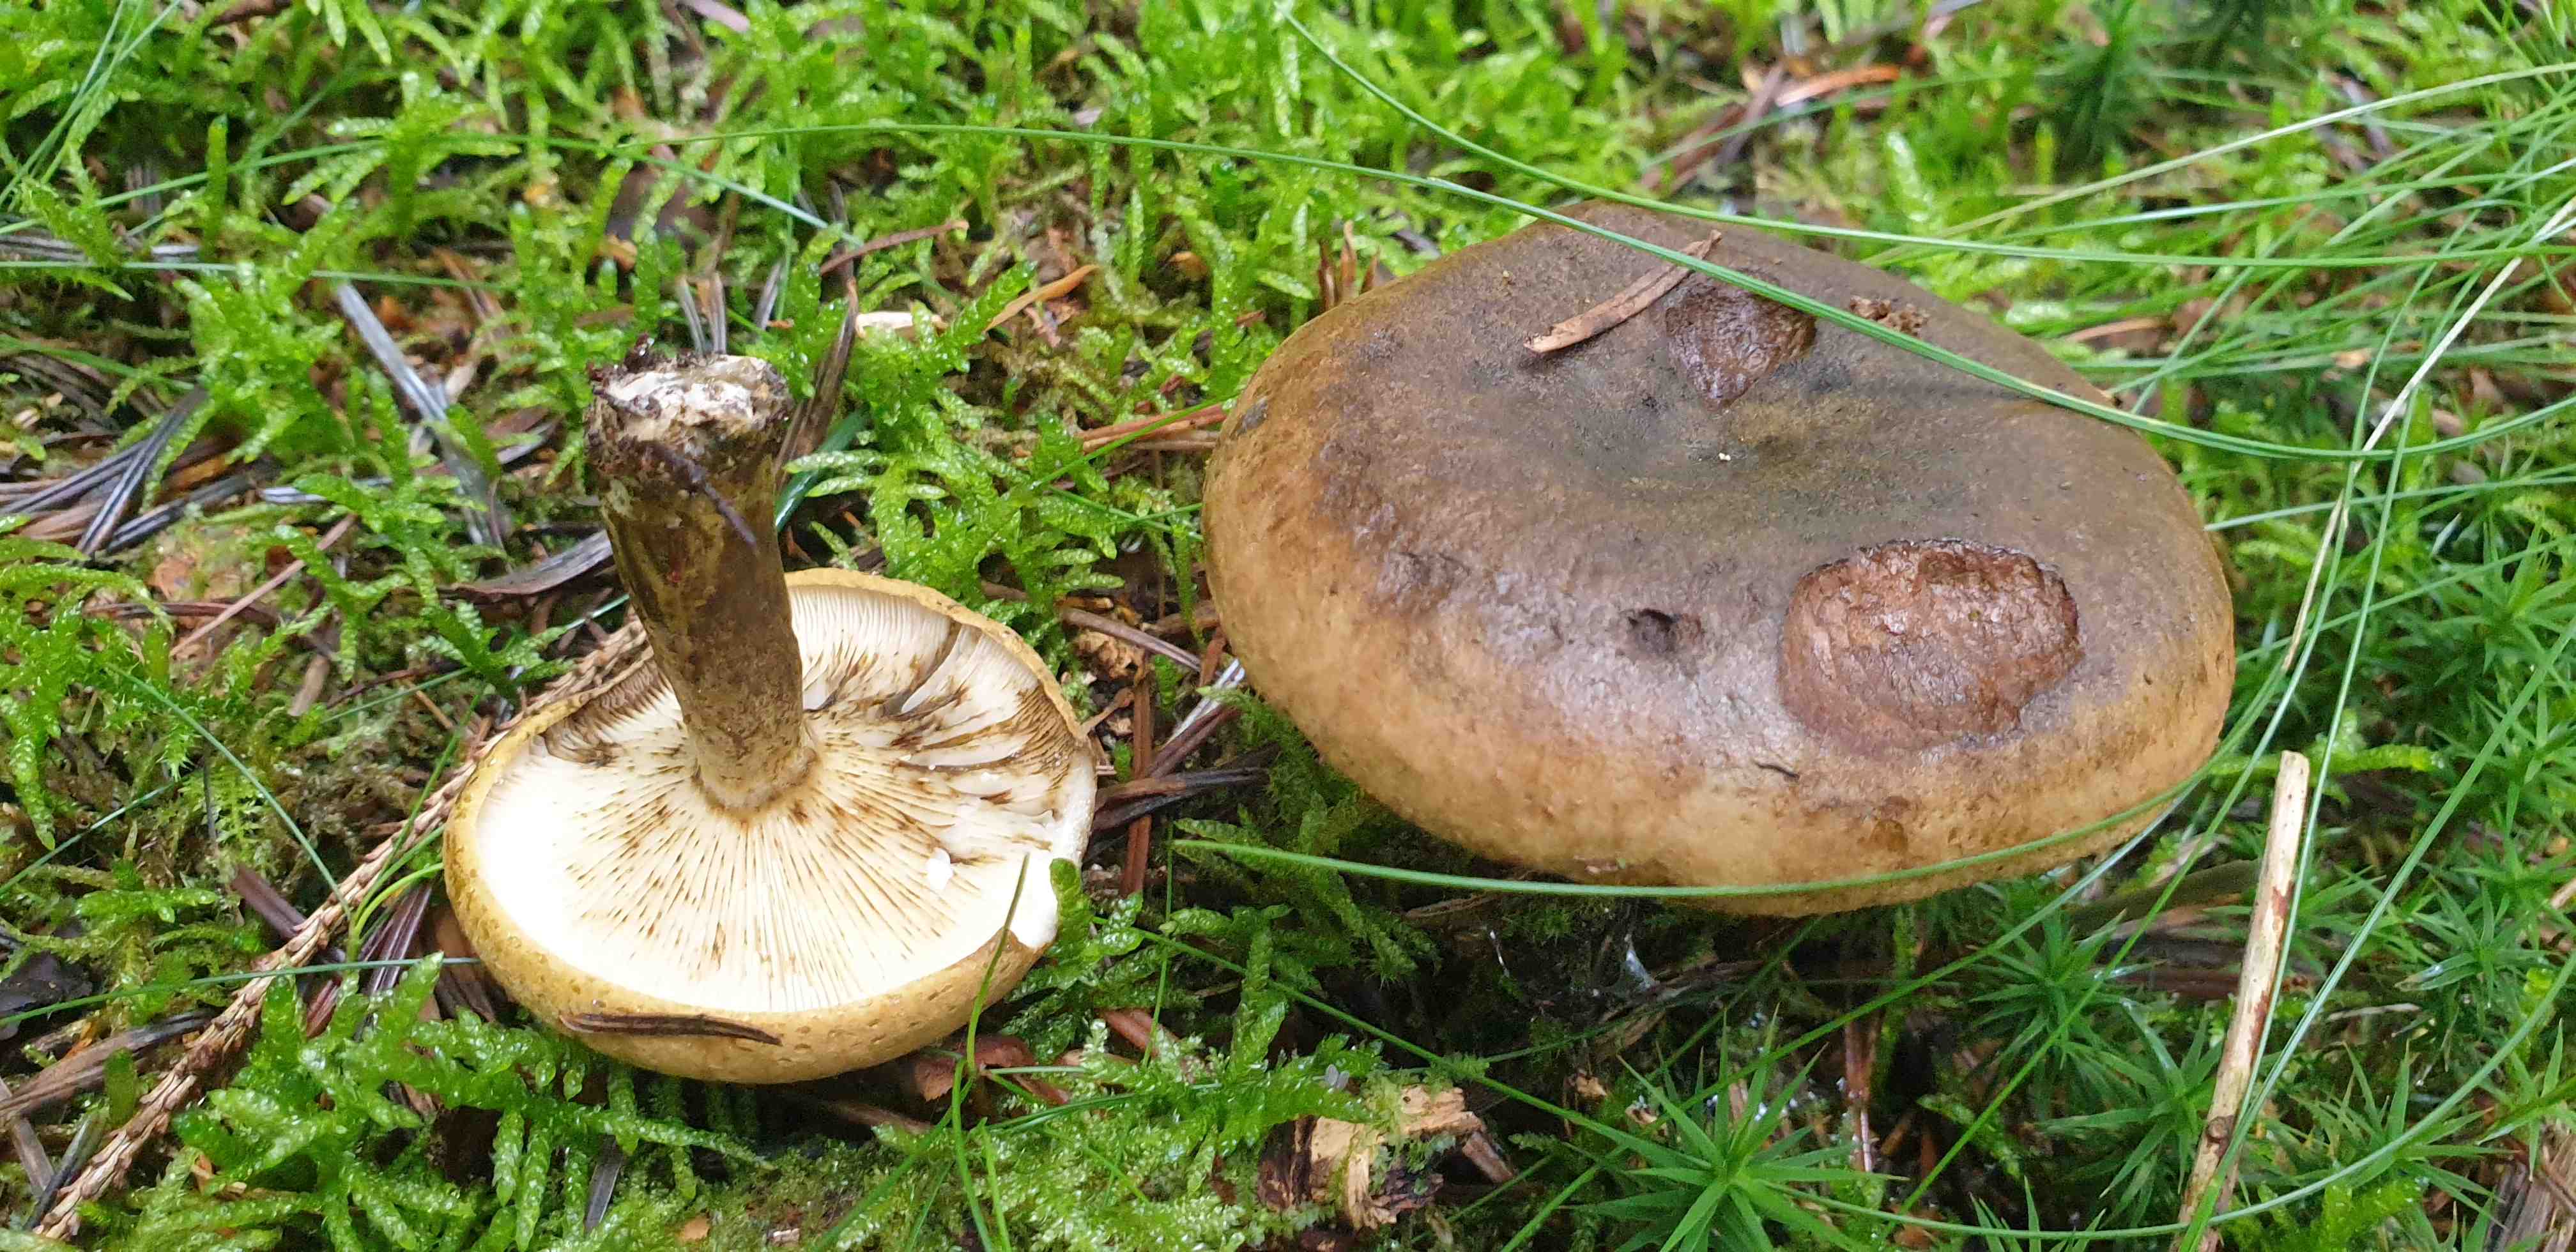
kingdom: Fungi
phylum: Basidiomycota
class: Agaricomycetes
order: Russulales
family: Russulaceae
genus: Lactarius
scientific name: Lactarius necator
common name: manddraber-mælkehat
